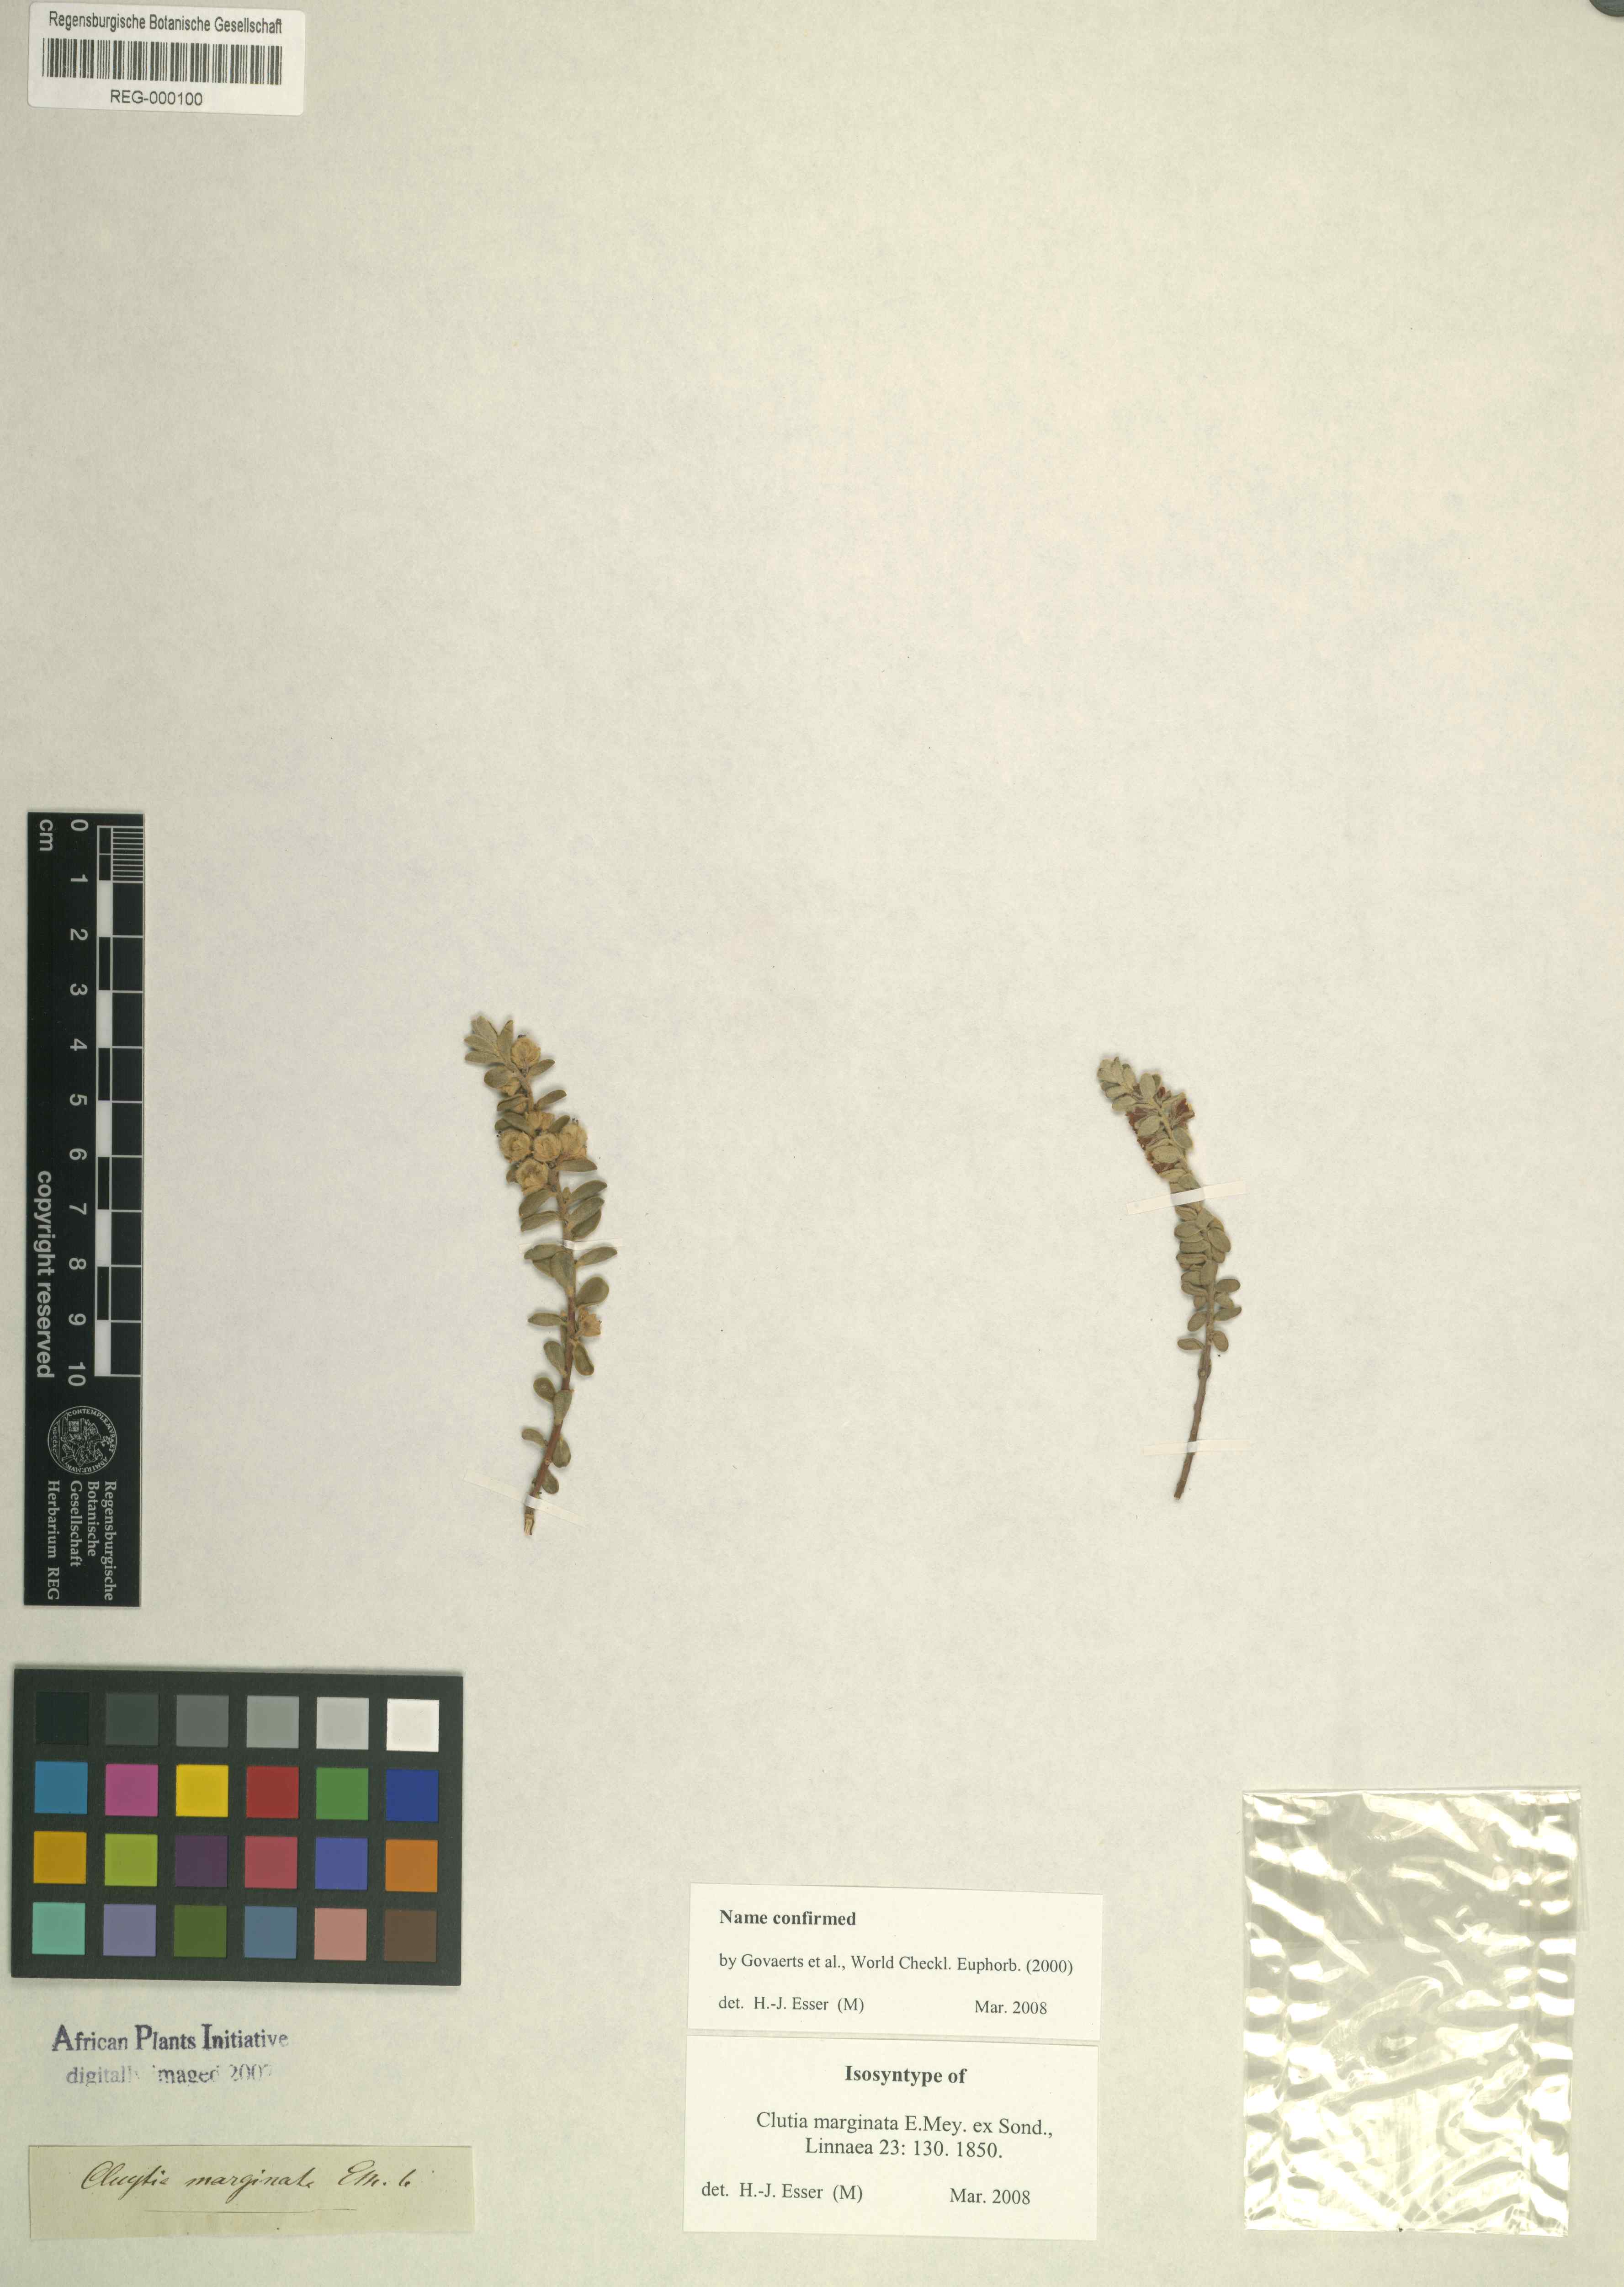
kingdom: Plantae
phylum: Tracheophyta
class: Magnoliopsida
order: Malpighiales
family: Peraceae
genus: Clutia
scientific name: Clutia marginata
